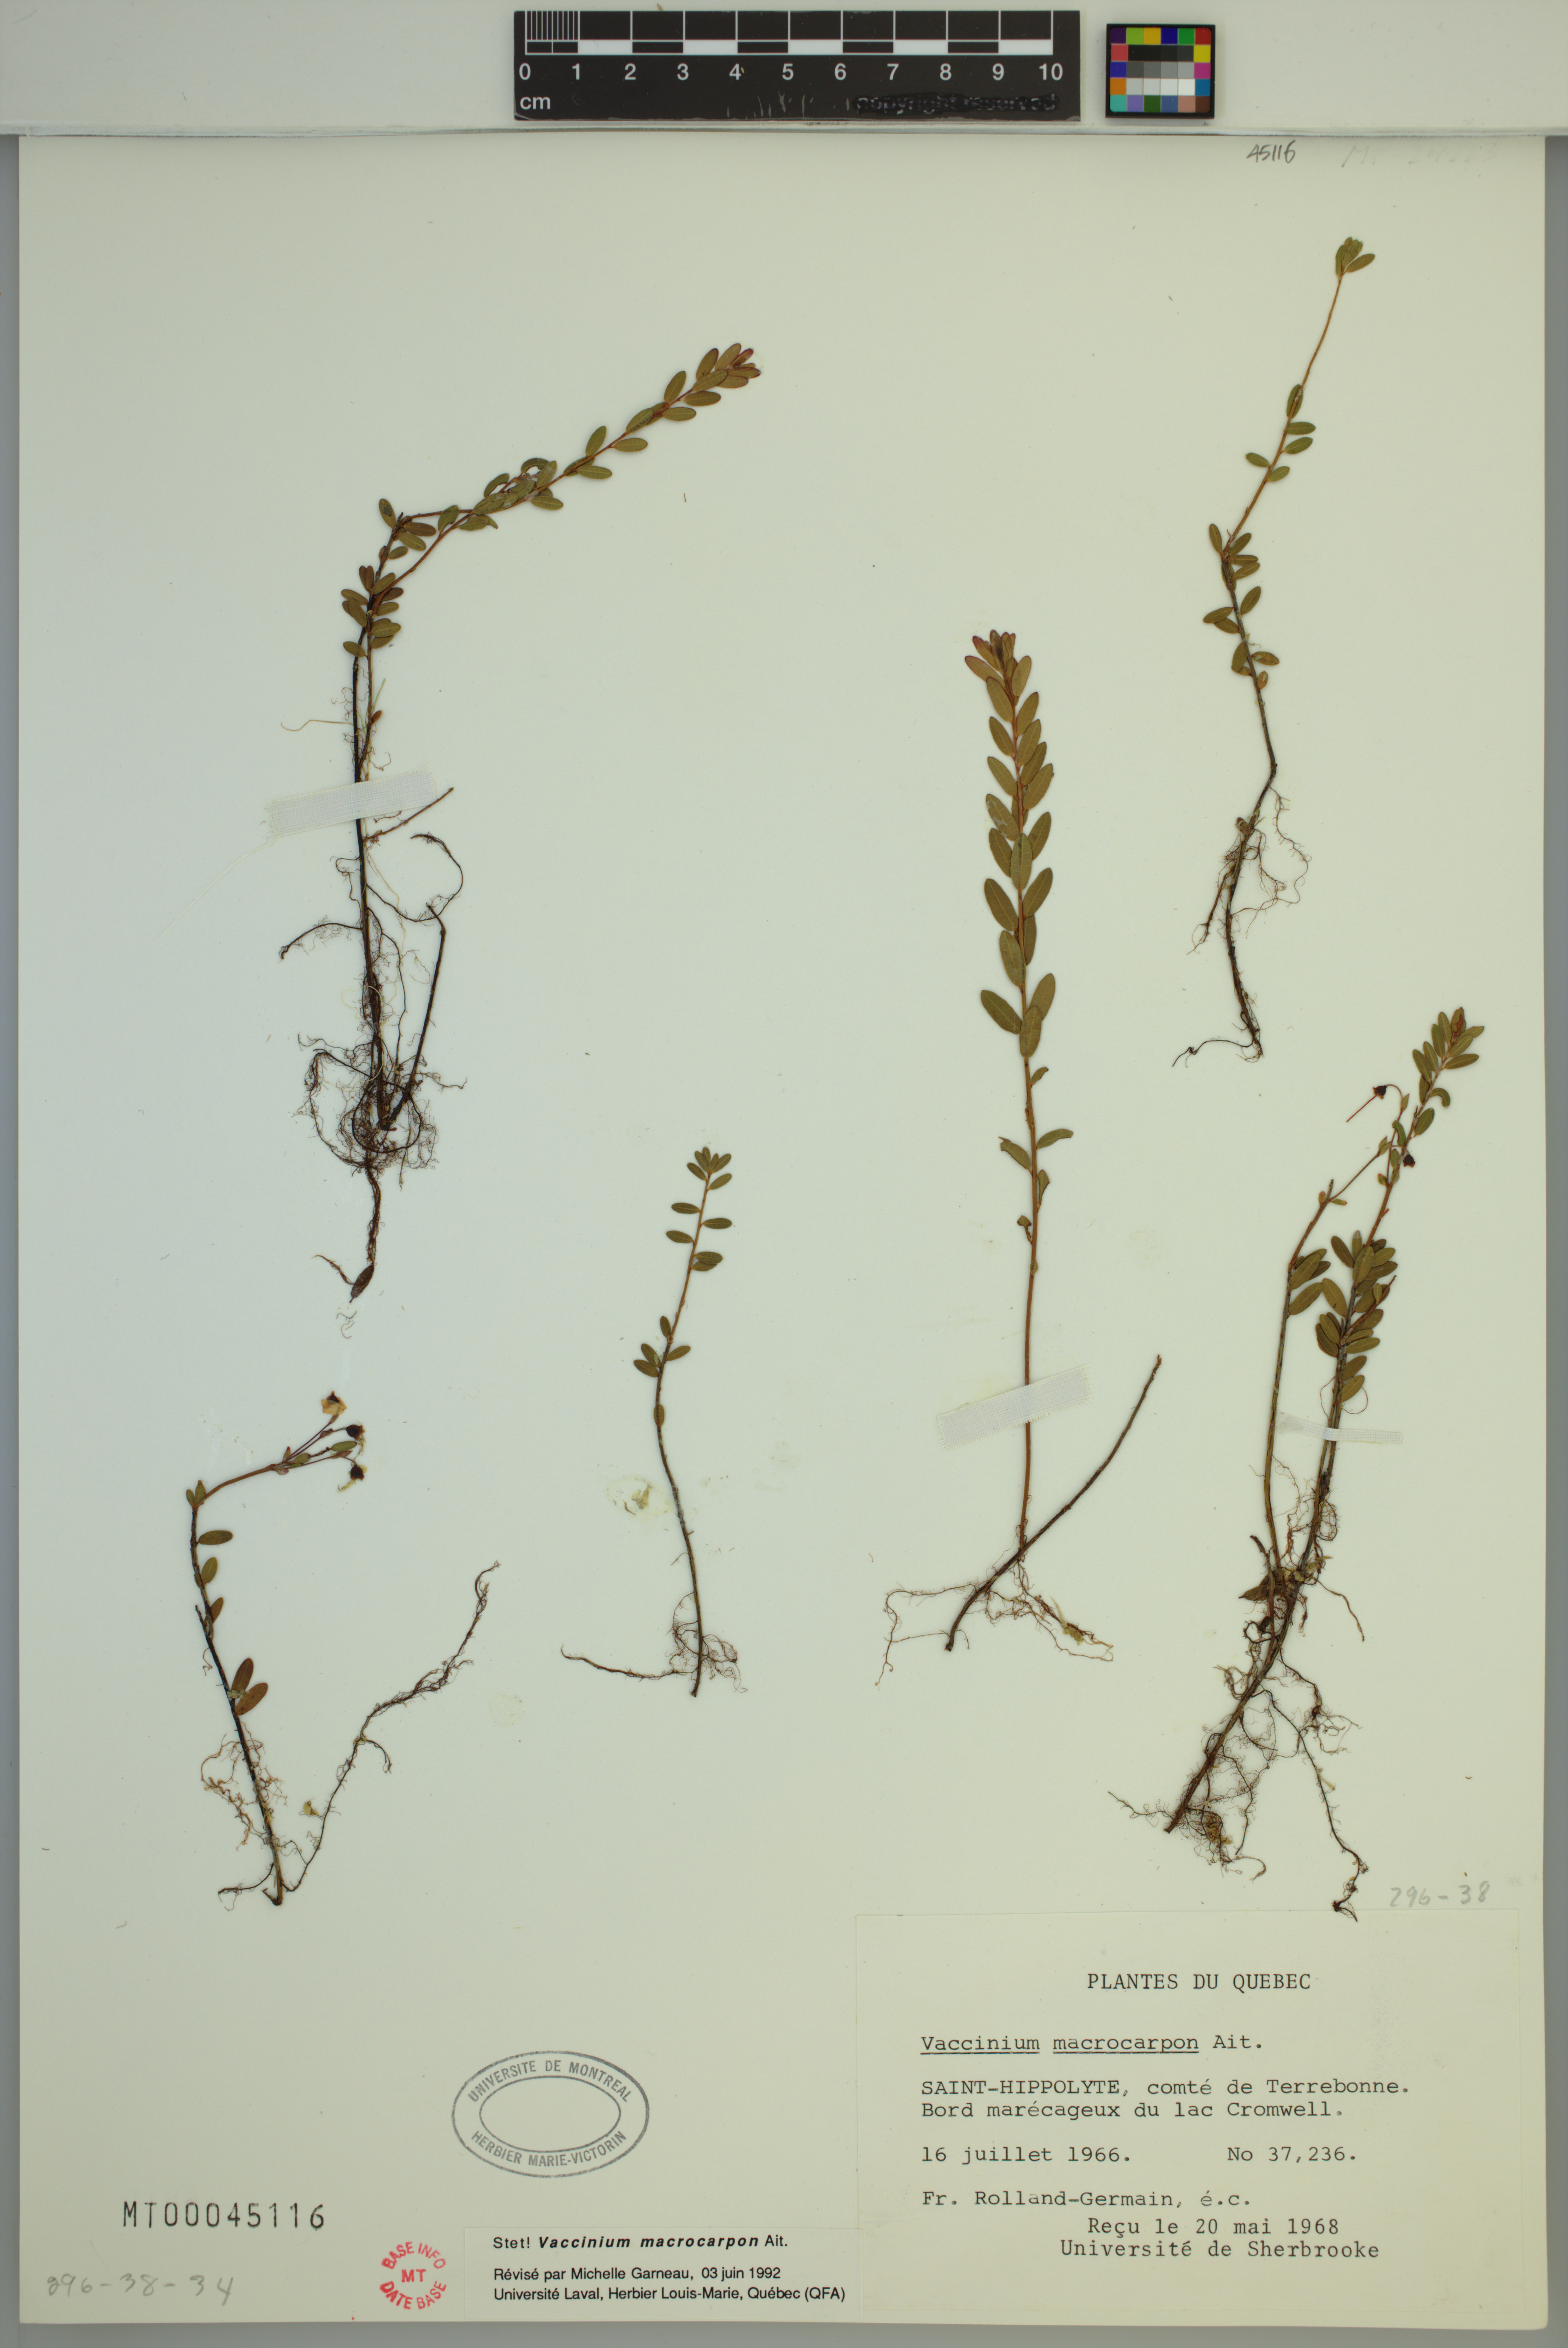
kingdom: Plantae
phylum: Tracheophyta
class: Magnoliopsida
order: Ericales
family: Ericaceae
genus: Vaccinium
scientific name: Vaccinium macrocarpon
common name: American cranberry
